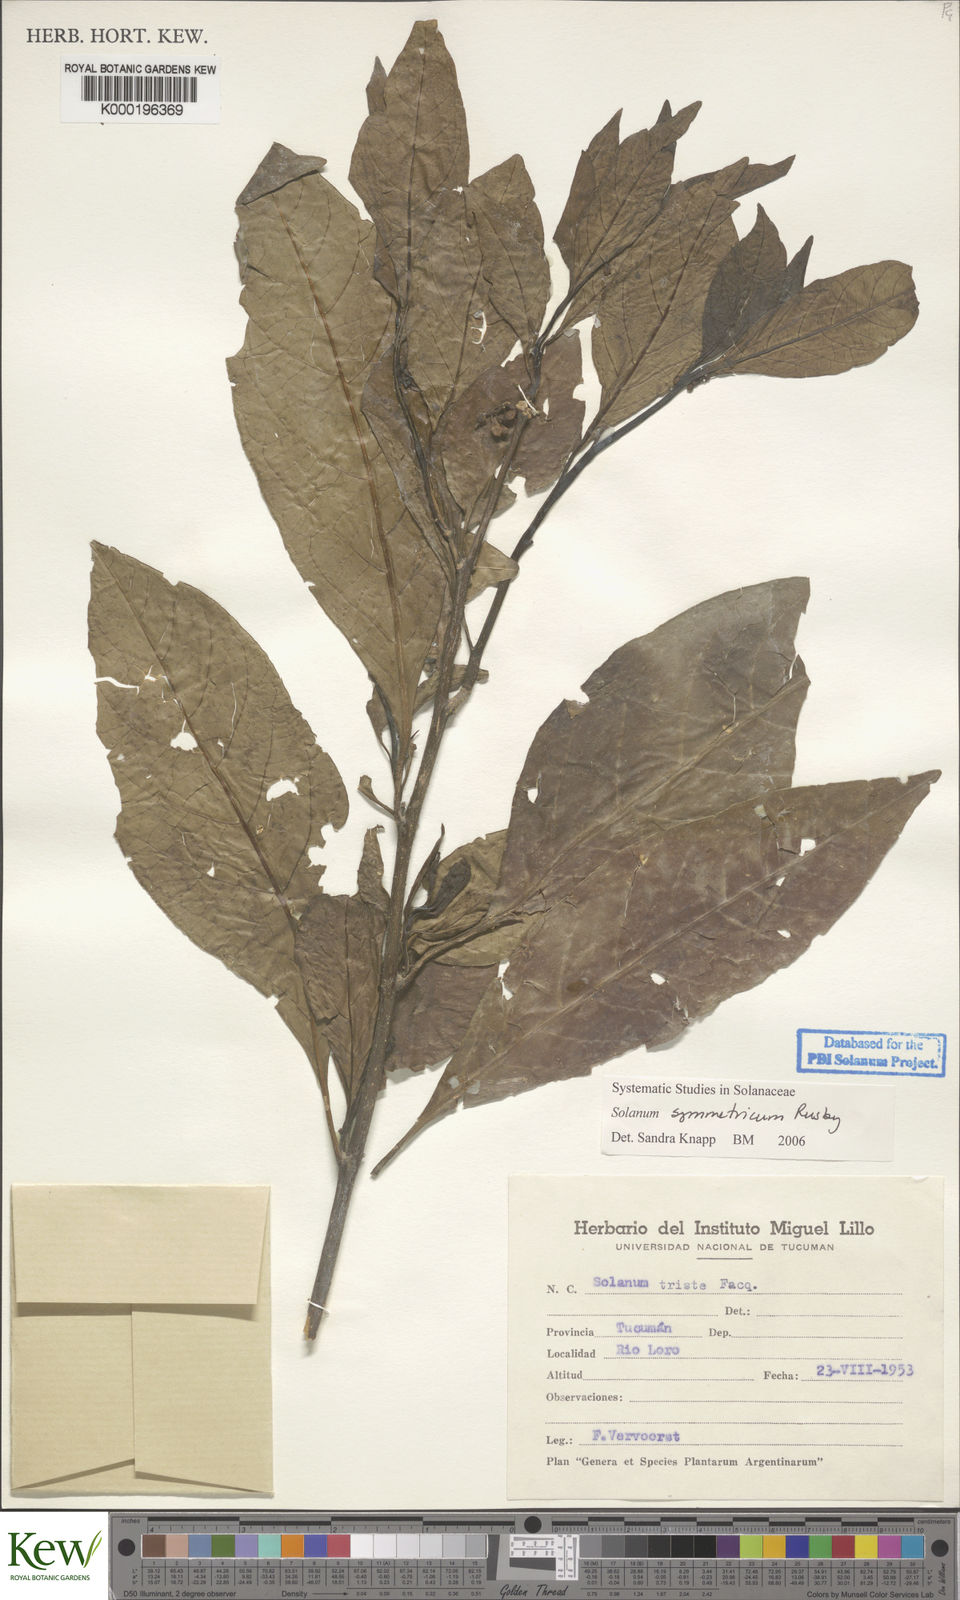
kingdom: Plantae
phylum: Tracheophyta
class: Magnoliopsida
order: Solanales
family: Solanaceae
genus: Solanum
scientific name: Solanum symmetricum
